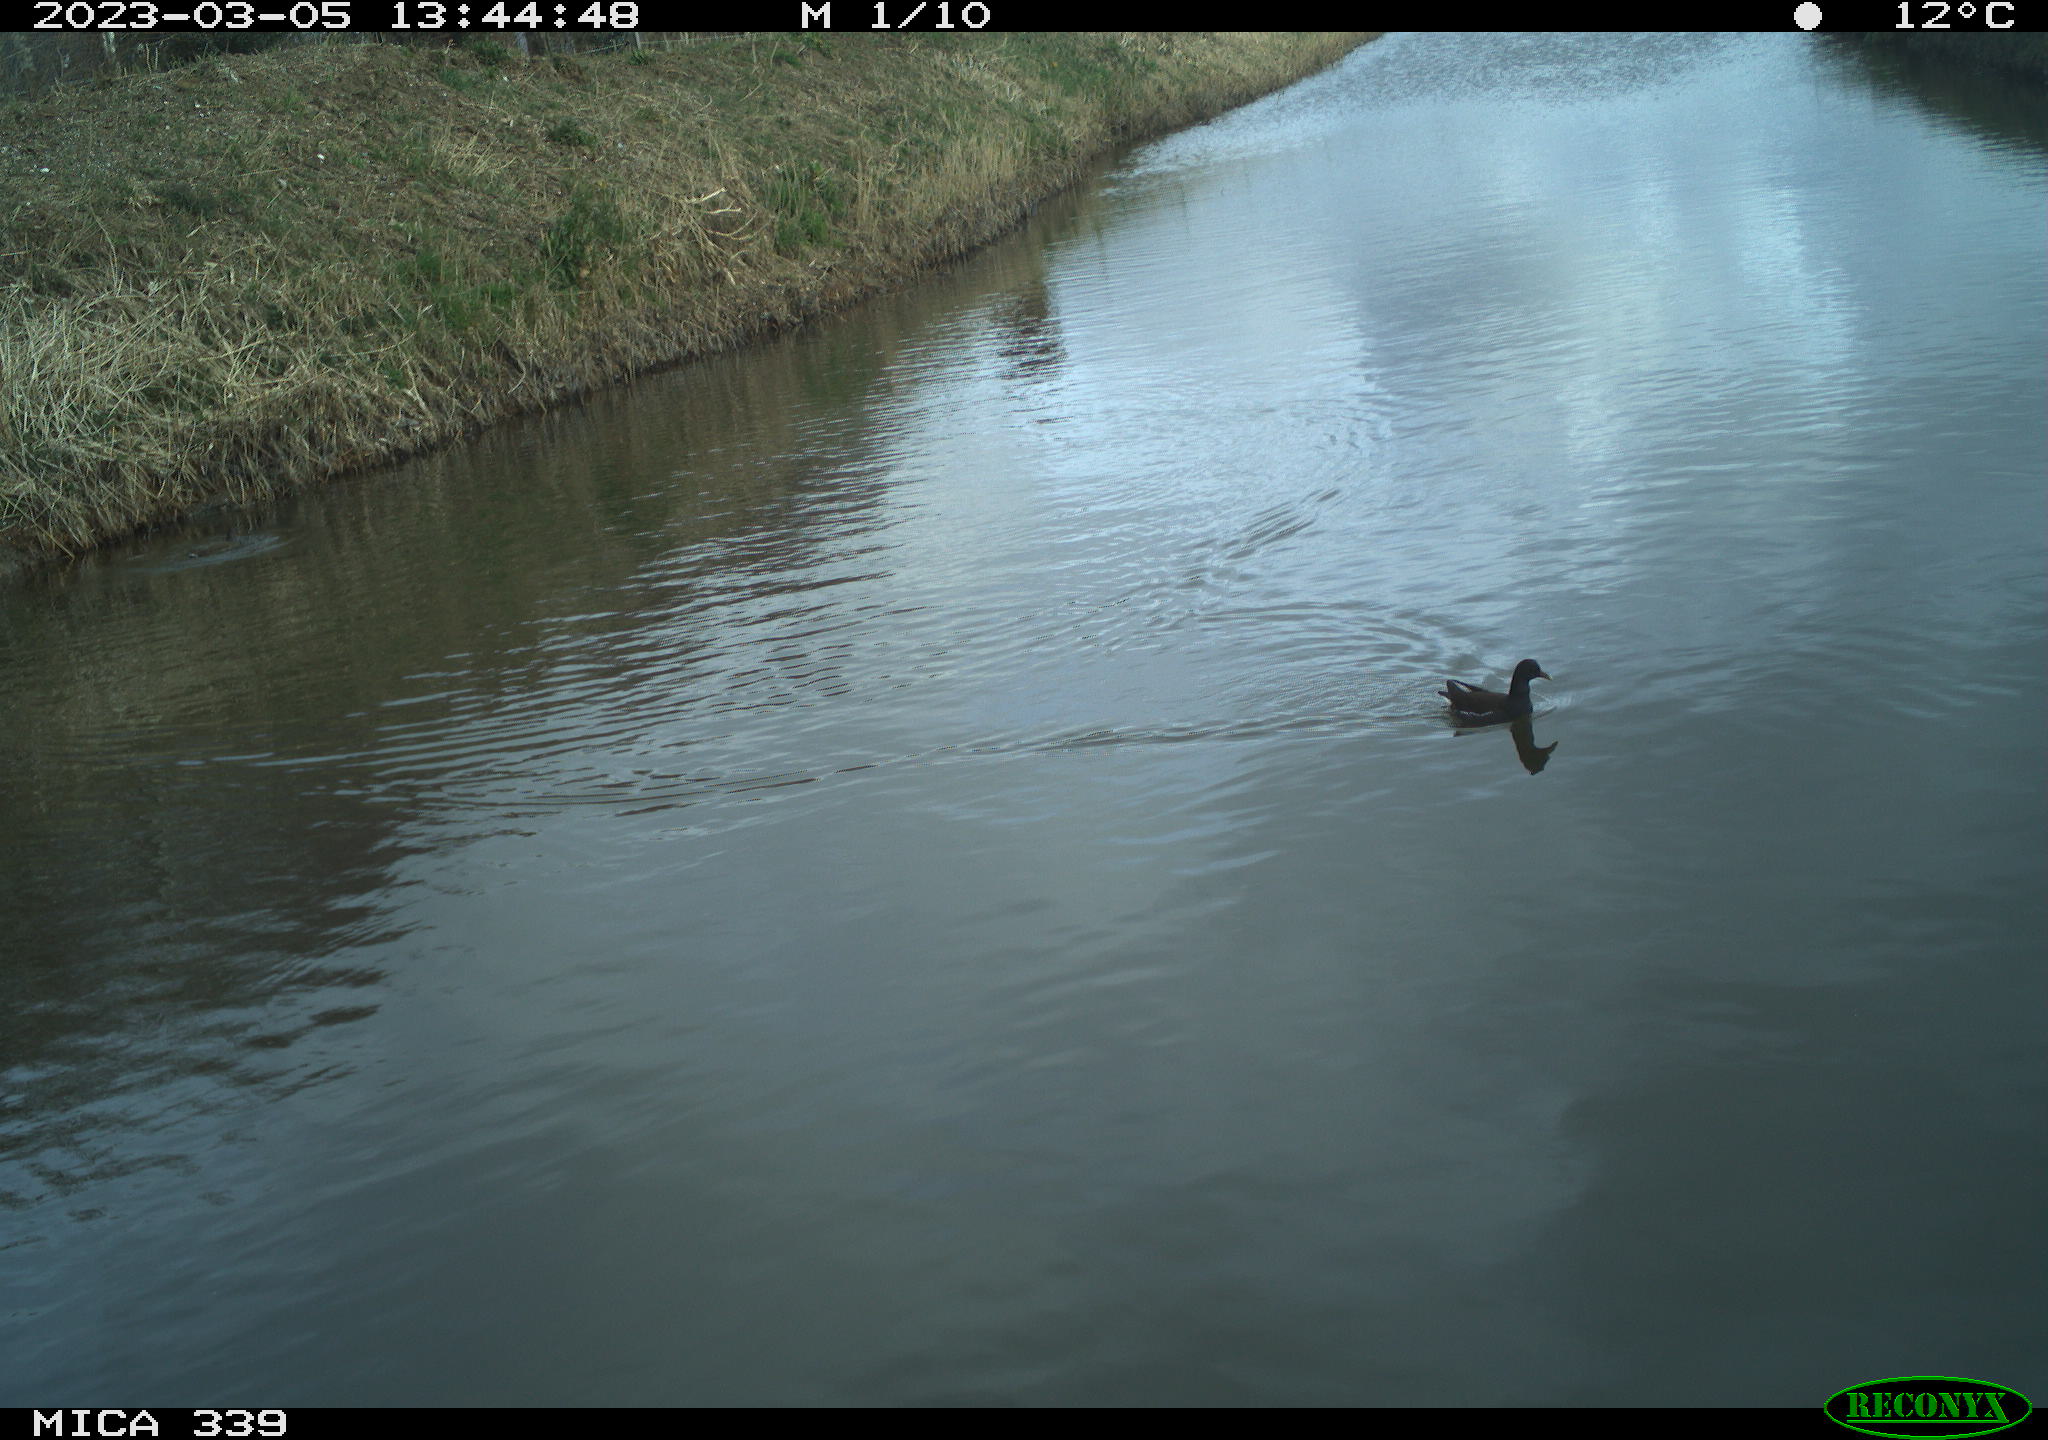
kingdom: Animalia
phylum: Chordata
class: Aves
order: Gruiformes
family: Rallidae
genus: Gallinula
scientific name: Gallinula chloropus
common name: Common moorhen
